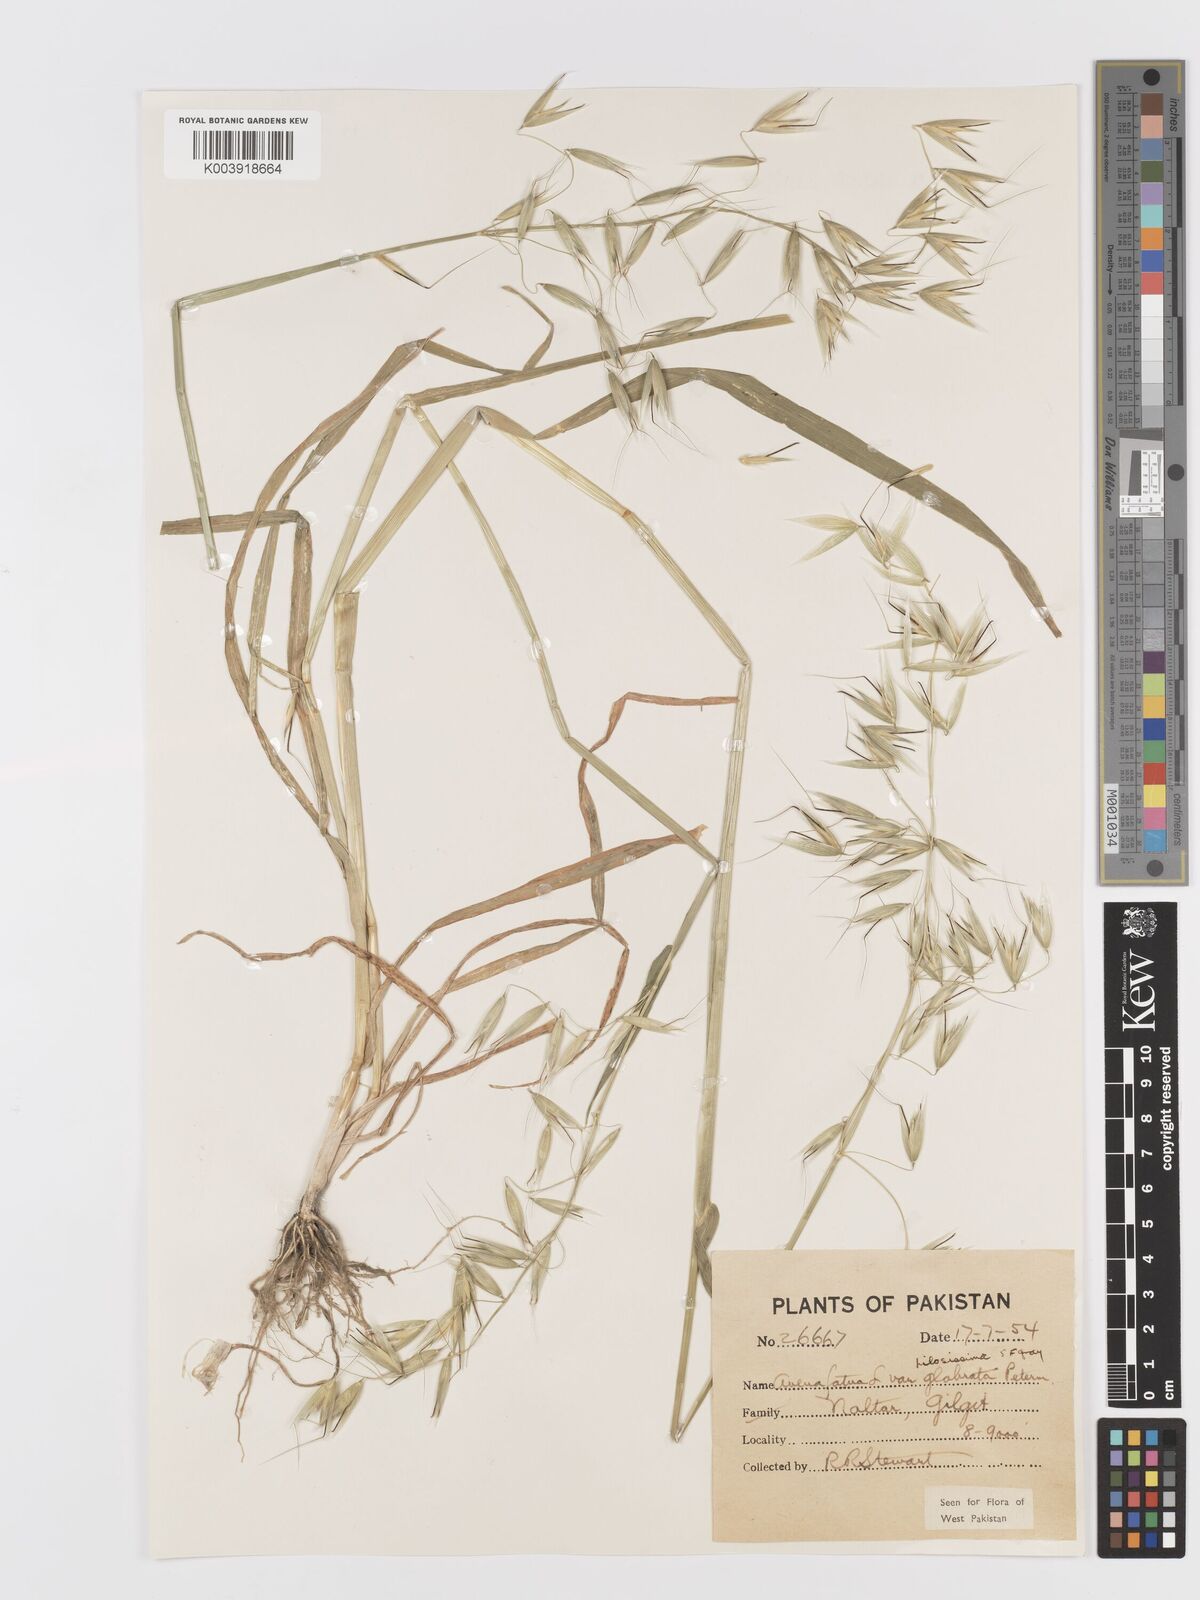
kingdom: Plantae
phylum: Tracheophyta
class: Liliopsida
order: Poales
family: Poaceae
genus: Avena
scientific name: Avena fatua
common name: Wild oat
